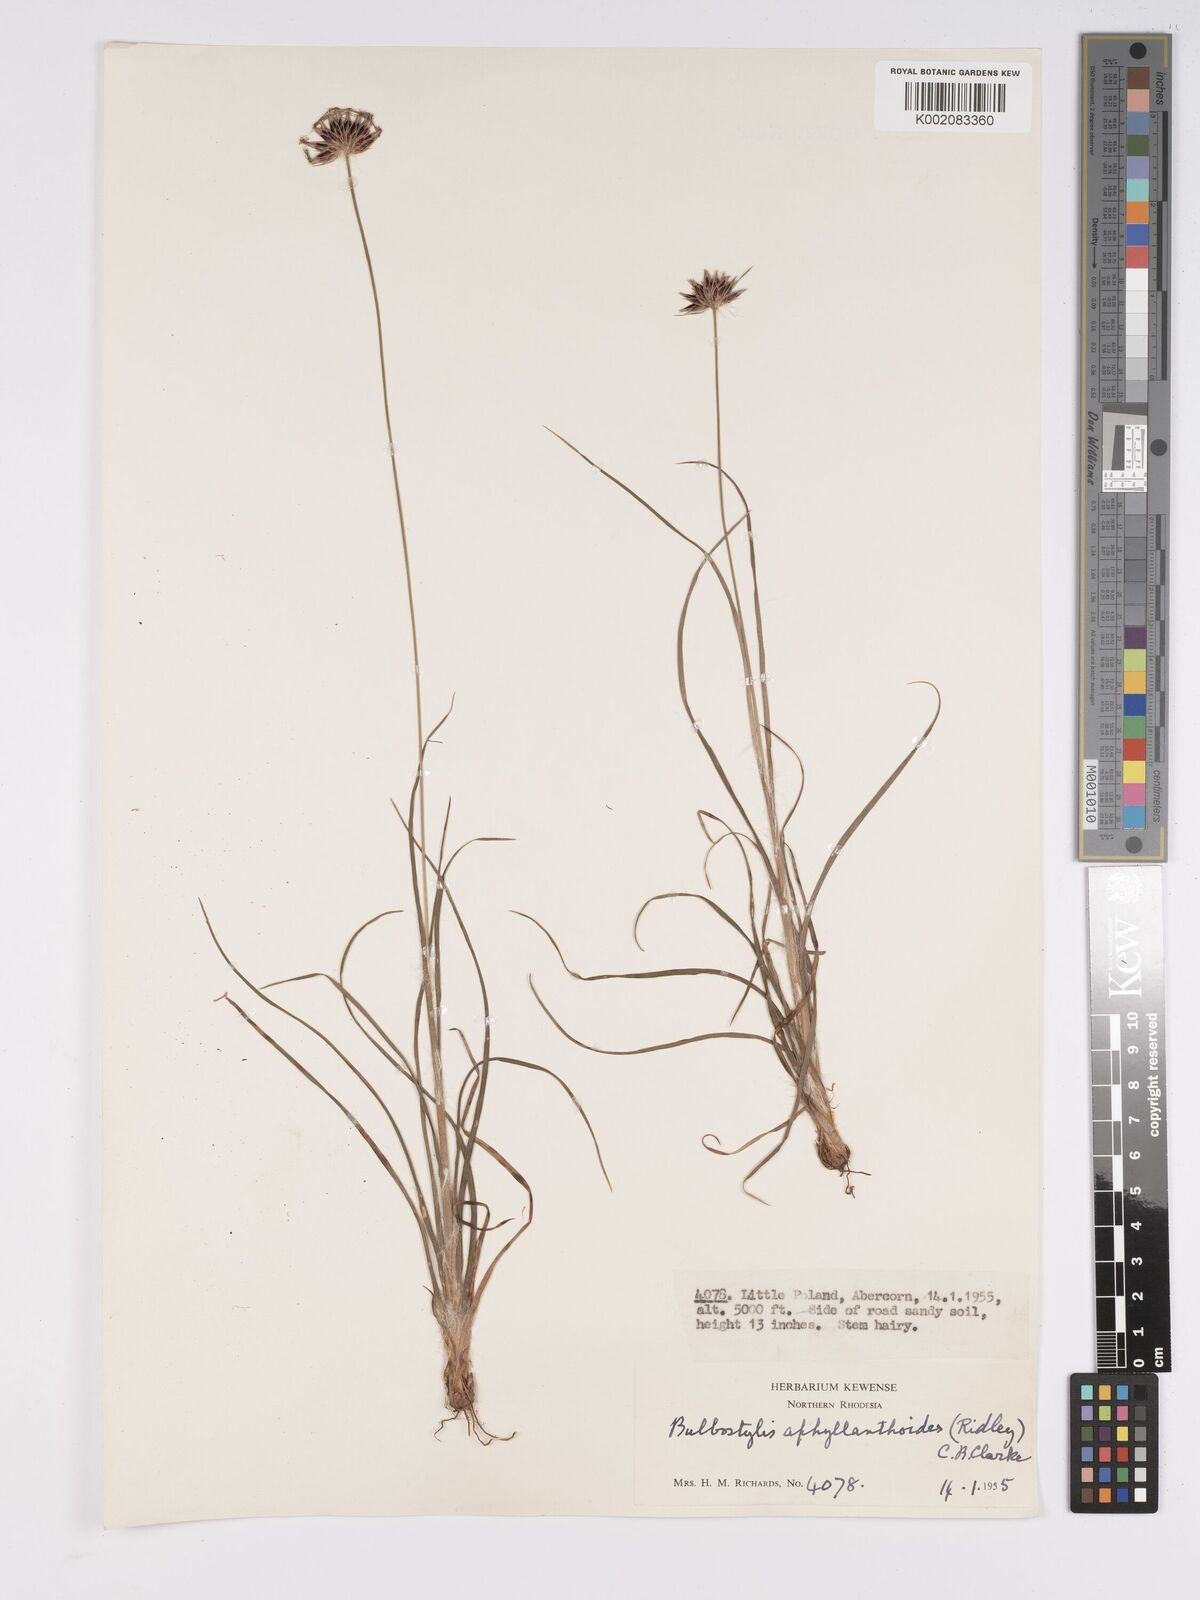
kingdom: Plantae
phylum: Tracheophyta
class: Liliopsida
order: Poales
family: Cyperaceae
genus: Bulbostylis
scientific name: Bulbostylis pilosa
